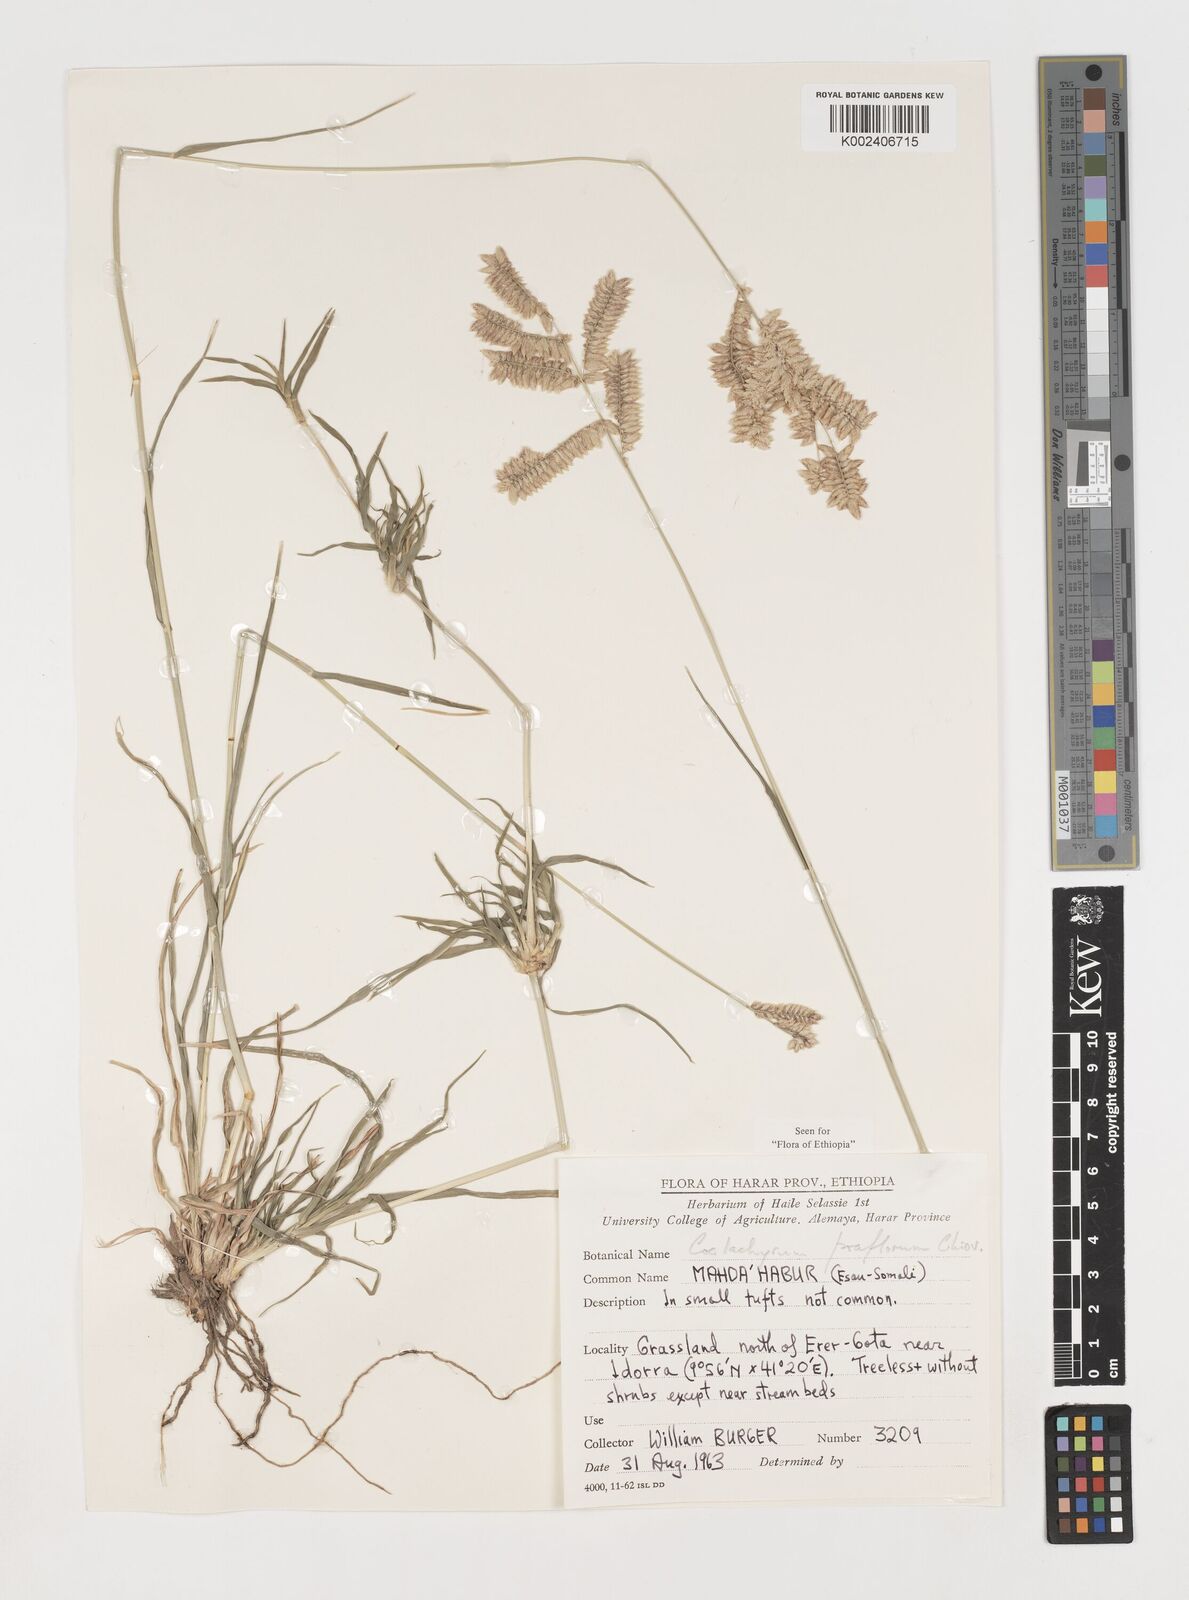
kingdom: Plantae
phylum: Tracheophyta
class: Liliopsida
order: Poales
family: Poaceae
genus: Coelachyrum
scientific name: Coelachyrum poiflorum
